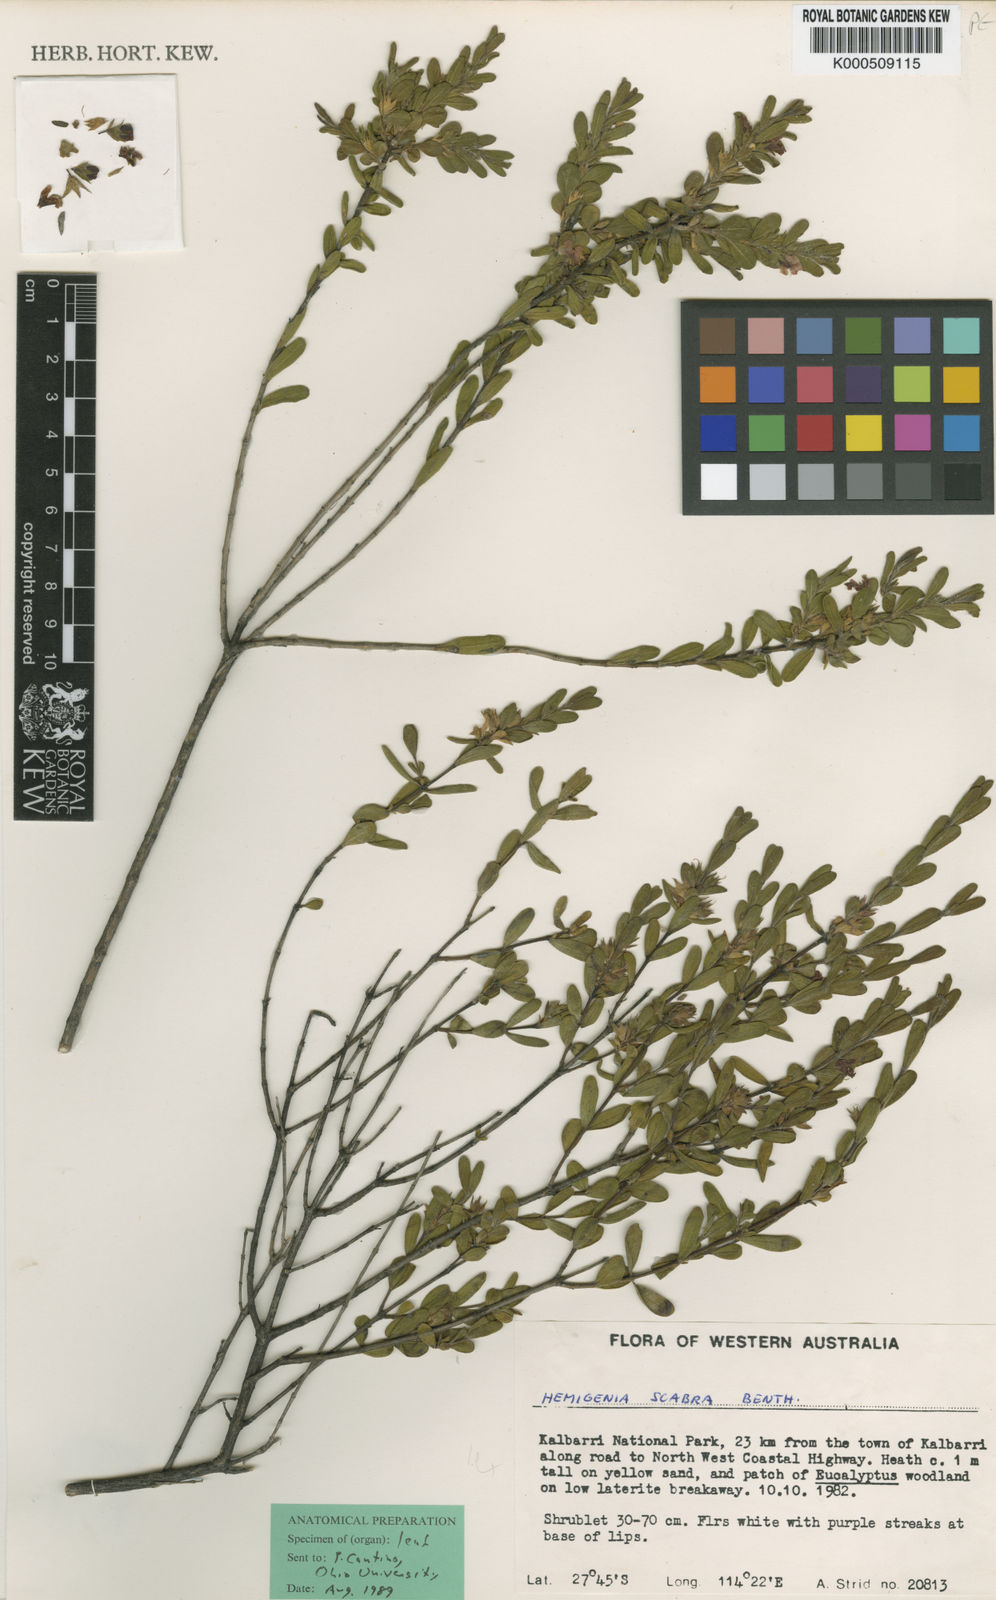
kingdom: Plantae
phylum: Tracheophyta
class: Magnoliopsida
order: Lamiales
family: Lamiaceae
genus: Hemigenia
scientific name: Hemigenia scabra
